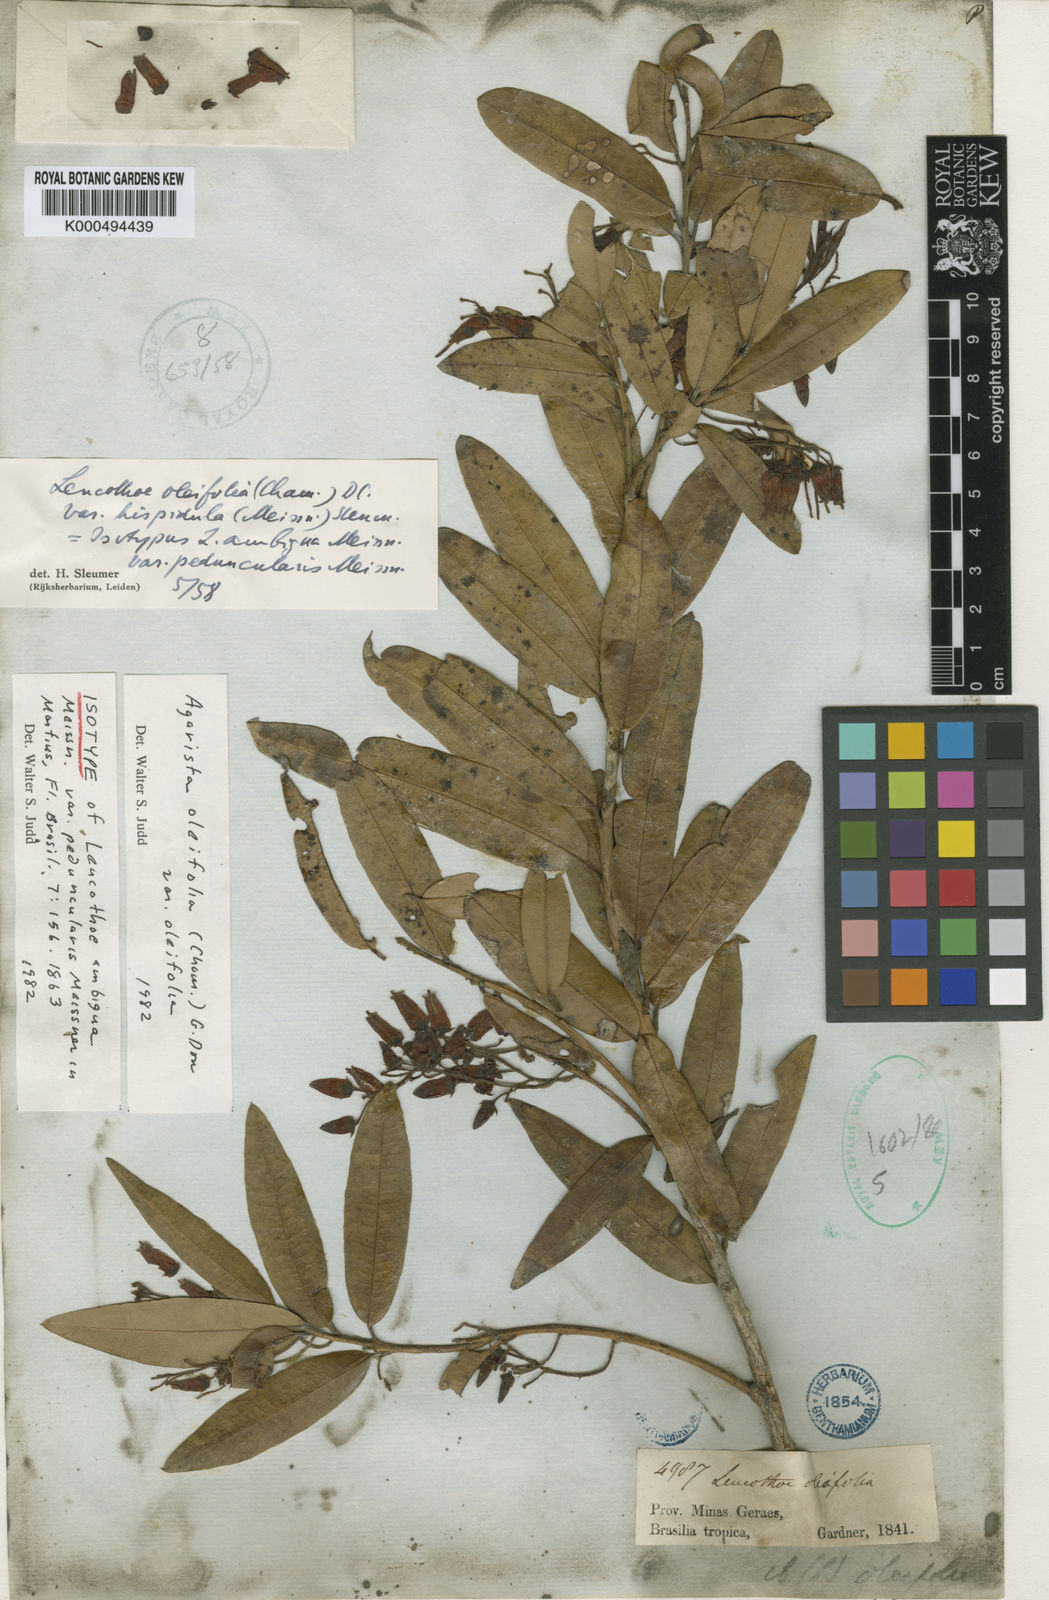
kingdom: Plantae
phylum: Tracheophyta
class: Magnoliopsida
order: Ericales
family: Ericaceae
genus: Agarista
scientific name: Agarista oleifolia
